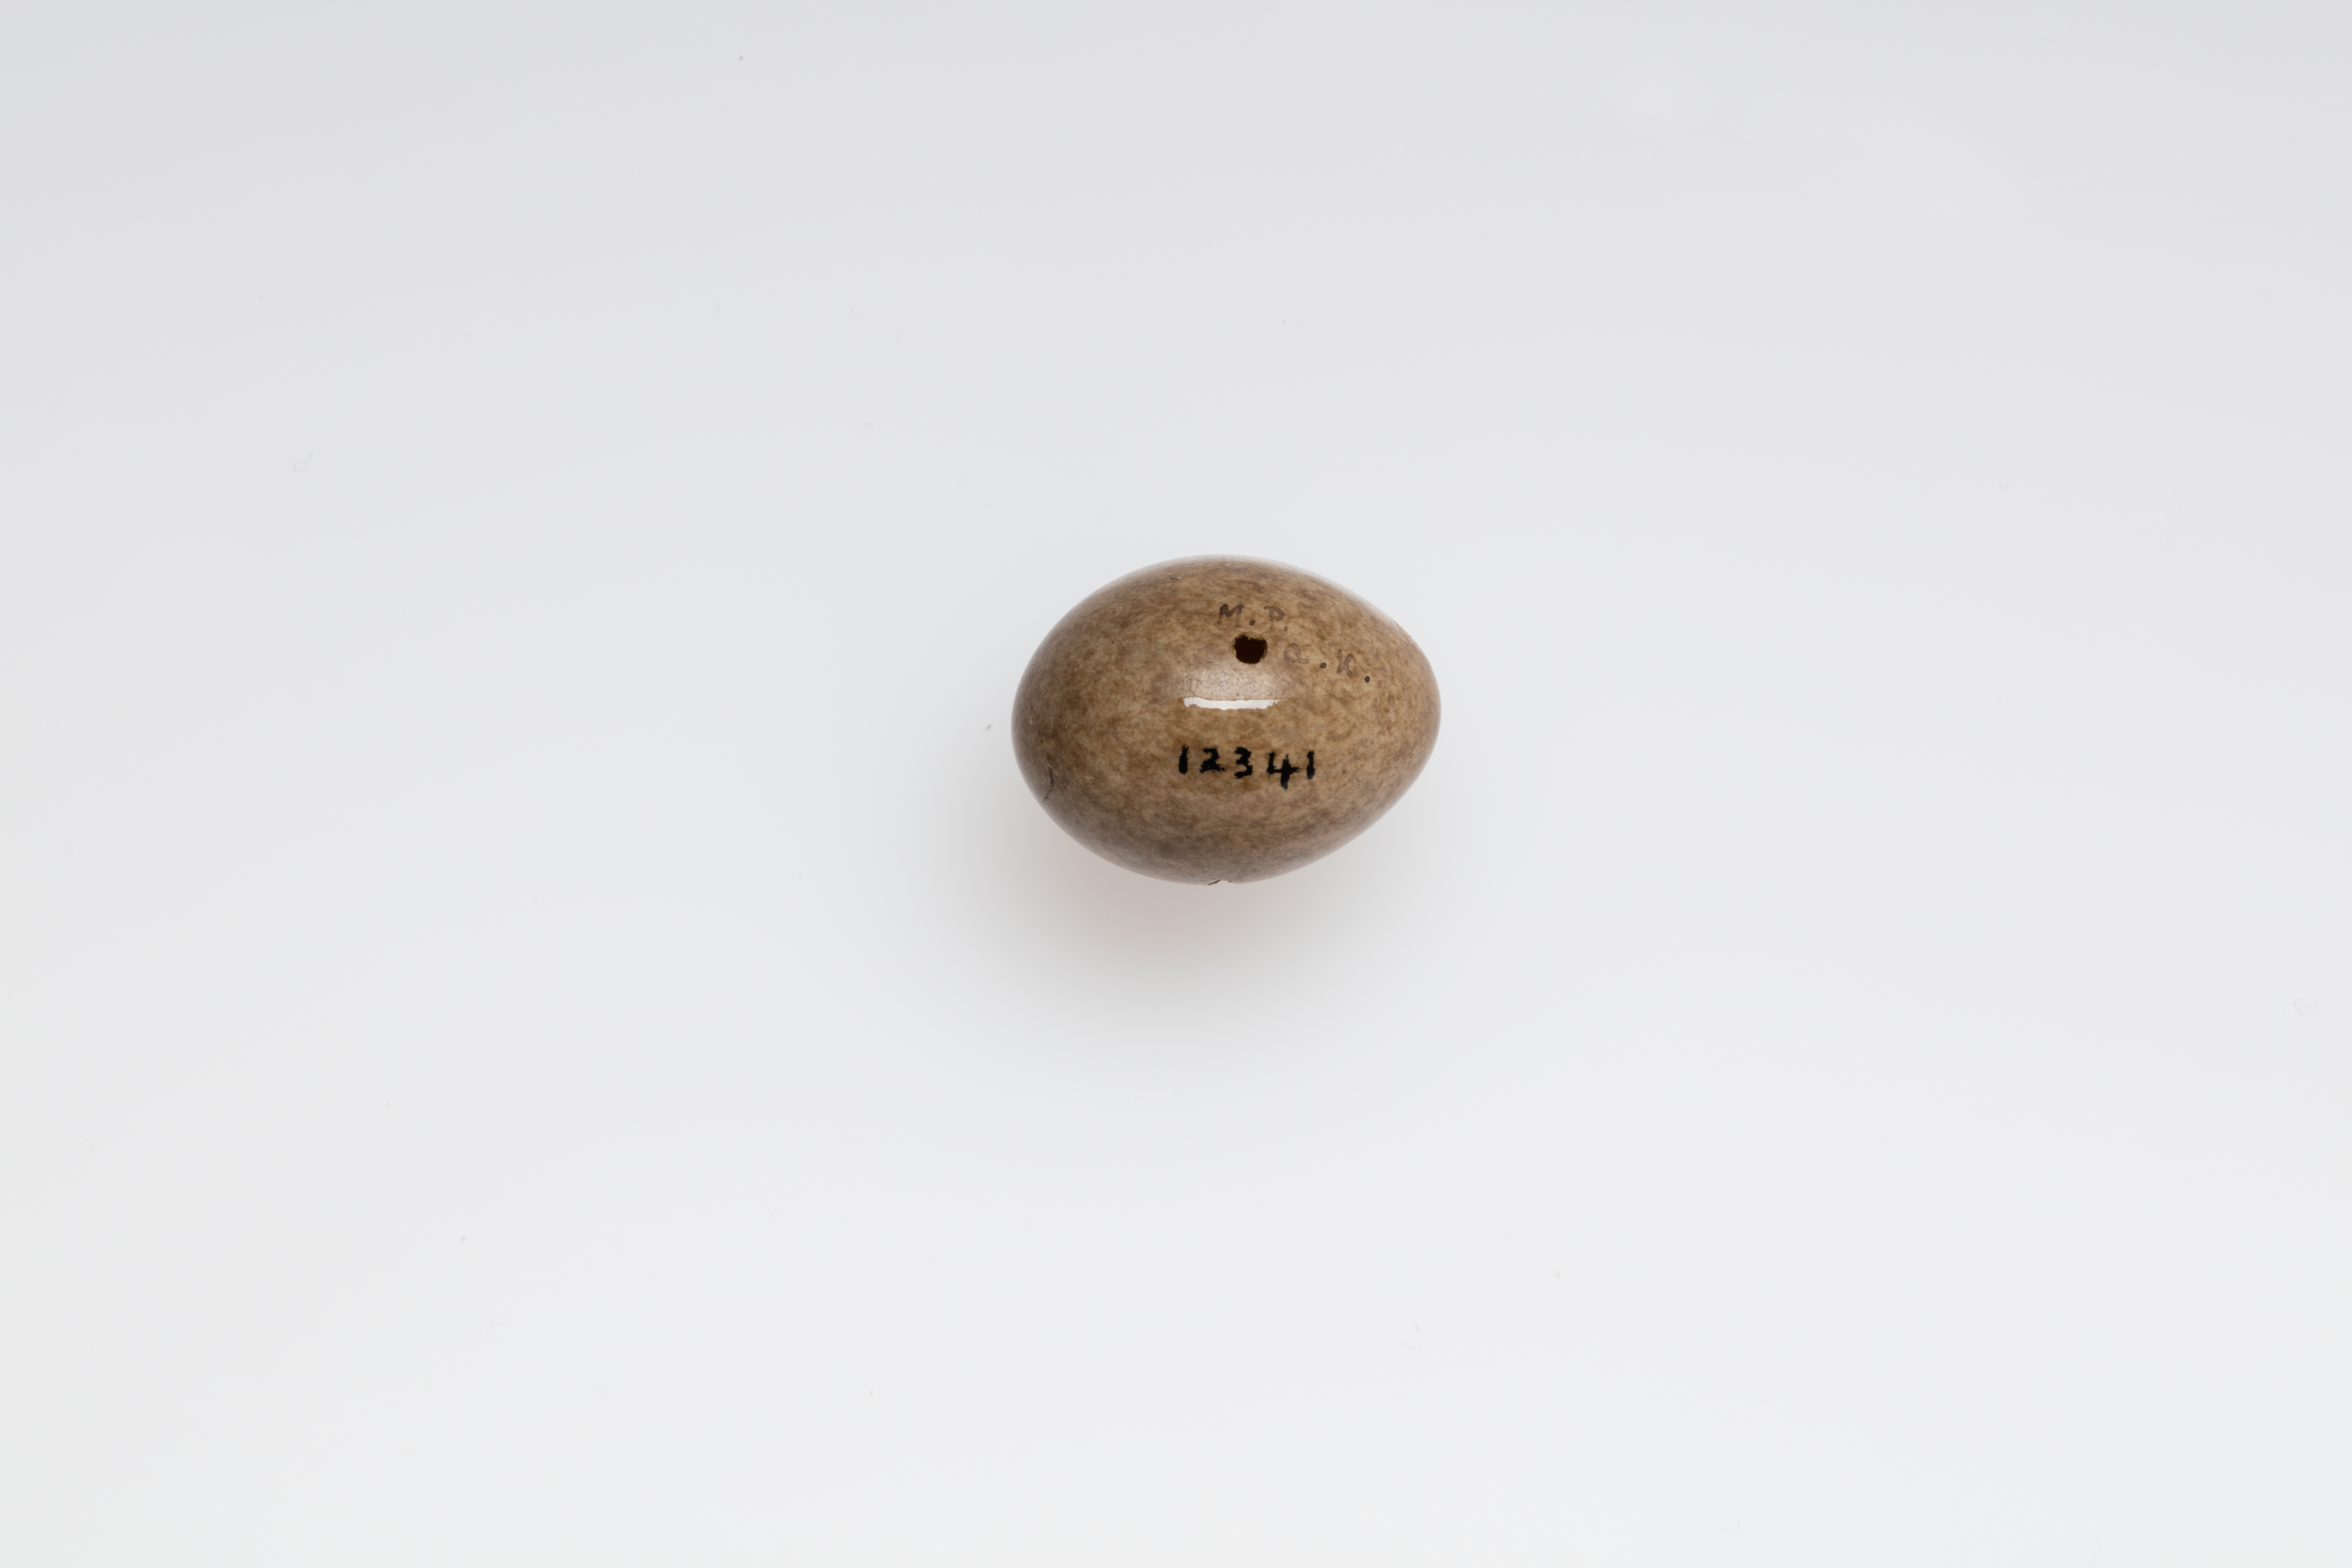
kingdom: Animalia
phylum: Chordata
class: Aves
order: Passeriformes
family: Passeridae
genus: Passer
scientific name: Passer montanus
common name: Eurasian tree sparrow
